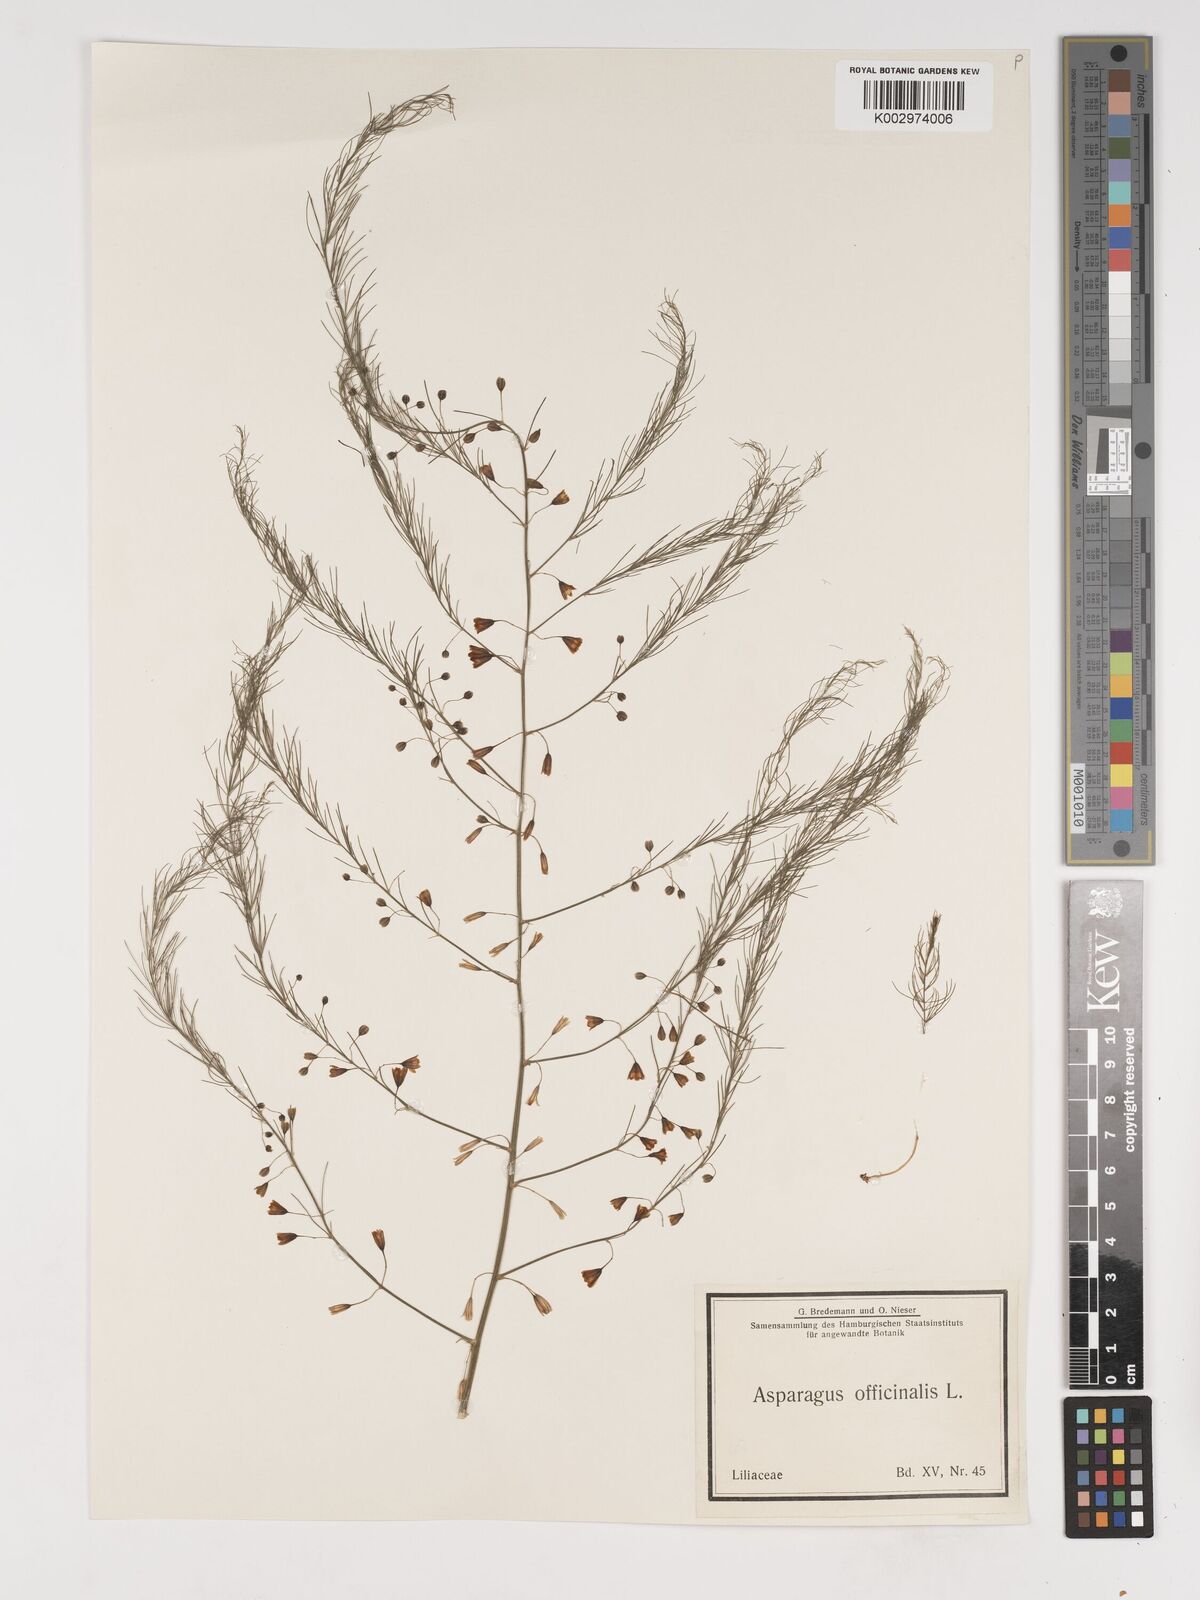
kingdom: Plantae
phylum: Tracheophyta
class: Liliopsida
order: Asparagales
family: Asparagaceae
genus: Asparagus
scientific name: Asparagus officinalis
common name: Garden asparagus
